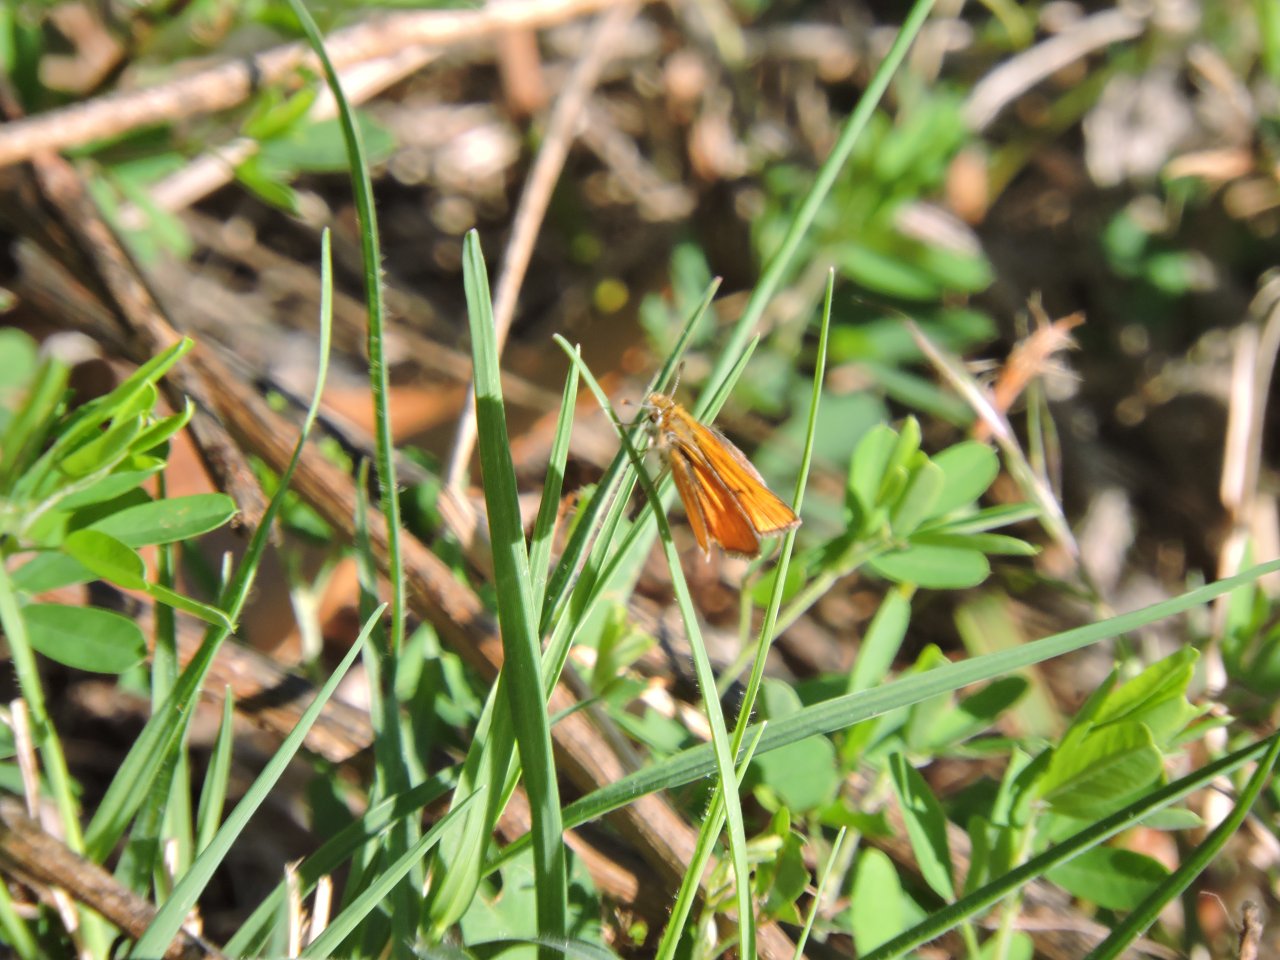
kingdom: Animalia
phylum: Arthropoda
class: Insecta
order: Lepidoptera
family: Hesperiidae
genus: Copaeodes
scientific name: Copaeodes minima
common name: Southern Skipperling
